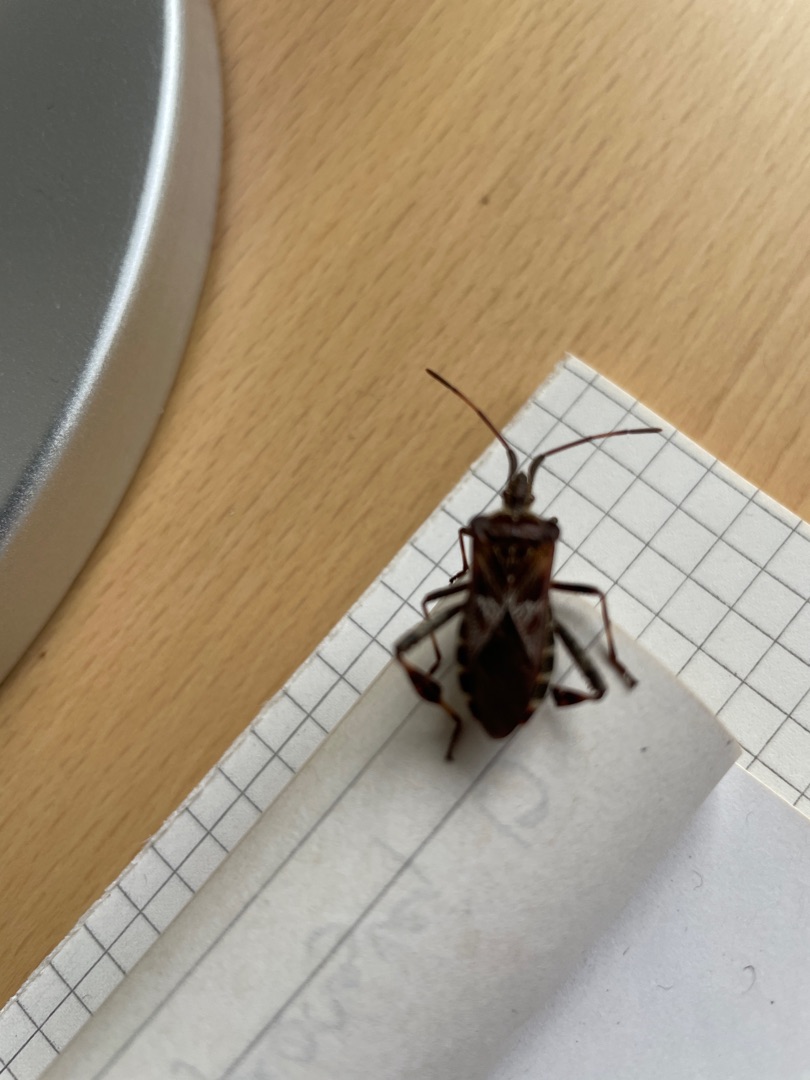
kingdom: Animalia
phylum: Arthropoda
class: Insecta
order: Hemiptera
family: Coreidae
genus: Leptoglossus
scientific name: Leptoglossus occidentalis
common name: Amerikansk fyrretæge
